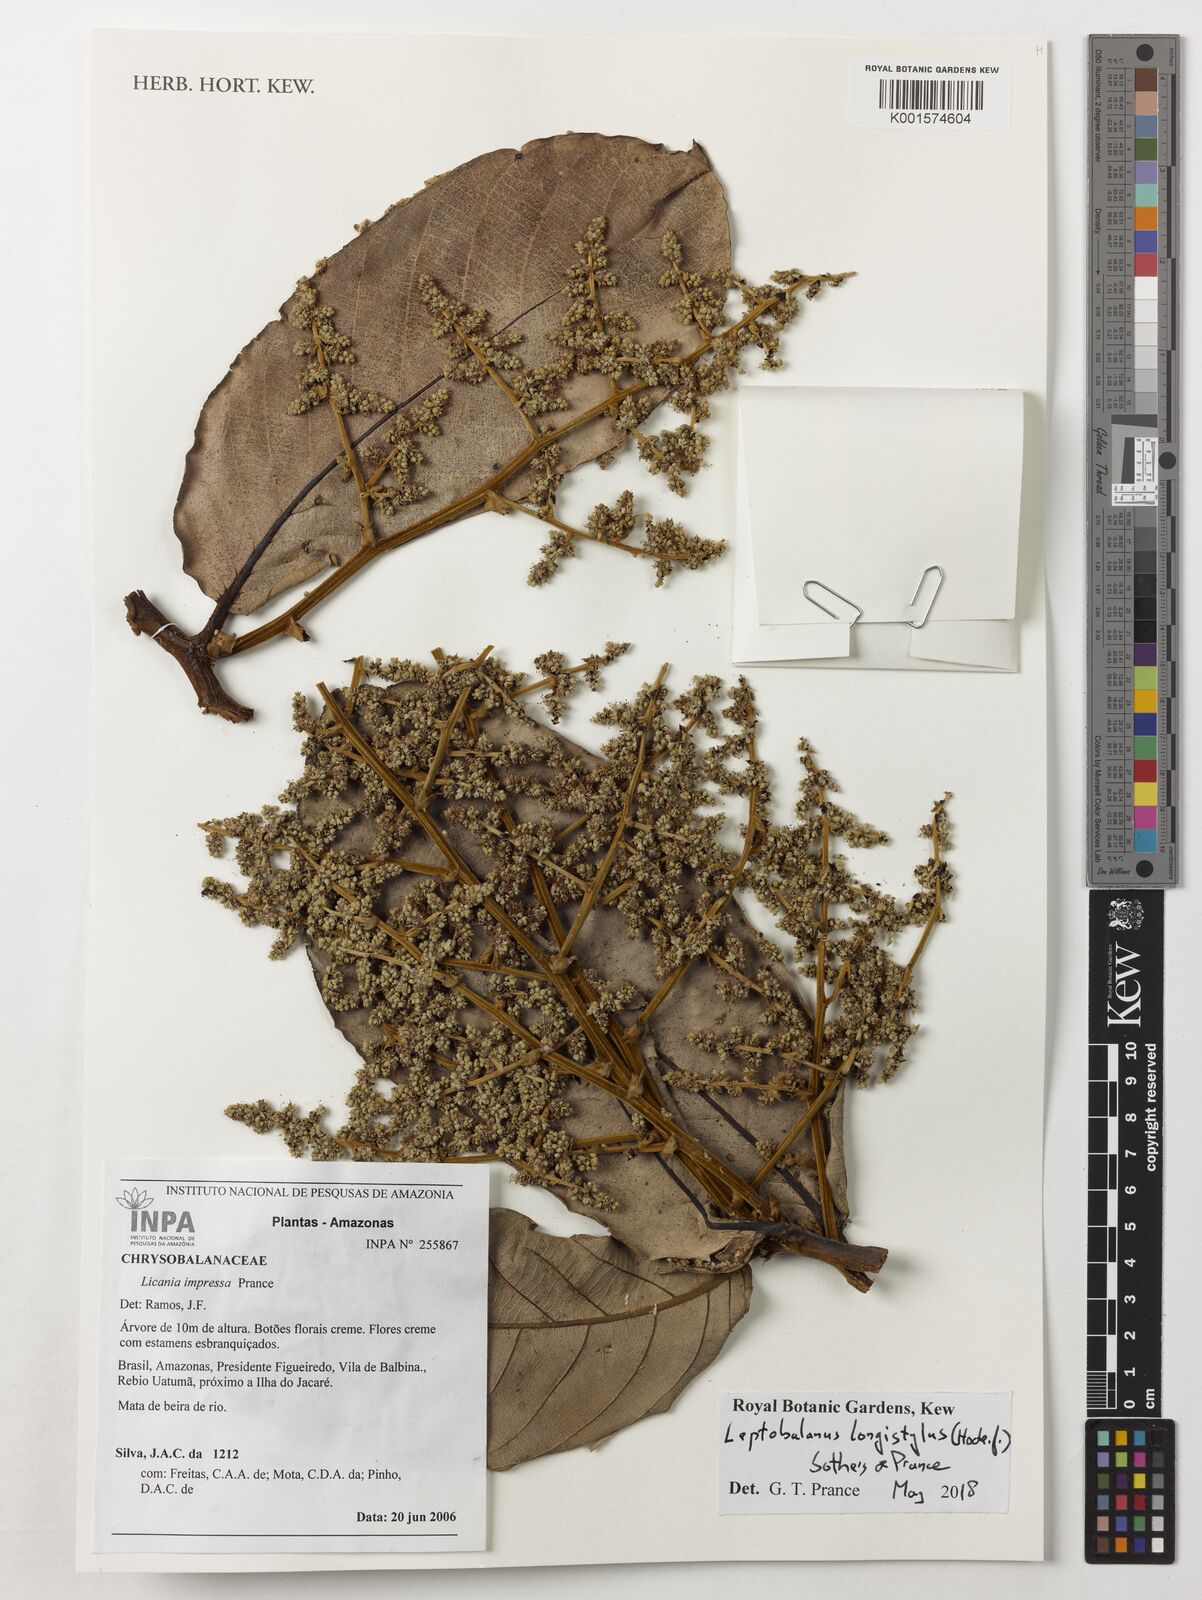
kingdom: Plantae
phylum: Tracheophyta
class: Magnoliopsida
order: Malpighiales
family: Chrysobalanaceae
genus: Leptobalanus
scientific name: Leptobalanus longistylus
